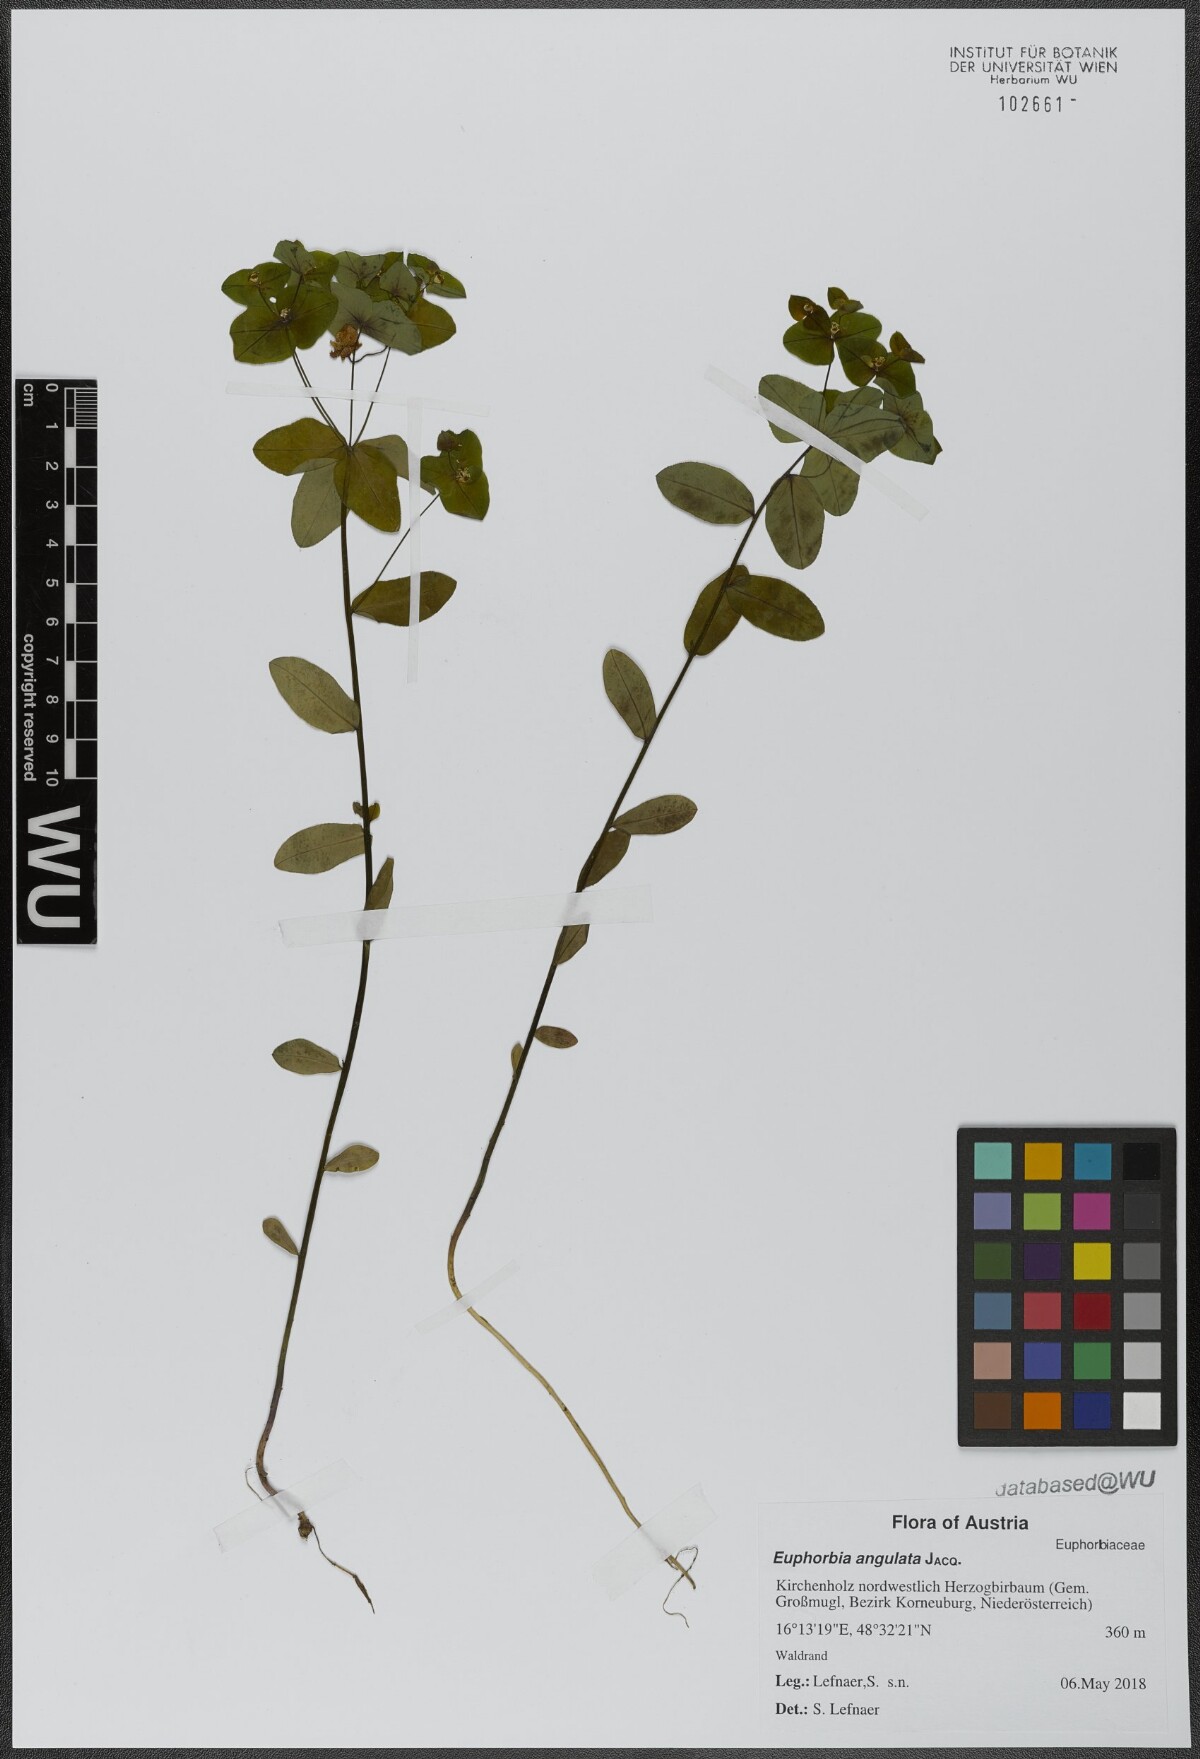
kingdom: Plantae
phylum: Tracheophyta
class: Magnoliopsida
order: Malpighiales
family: Euphorbiaceae
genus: Euphorbia
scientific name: Euphorbia angulata
